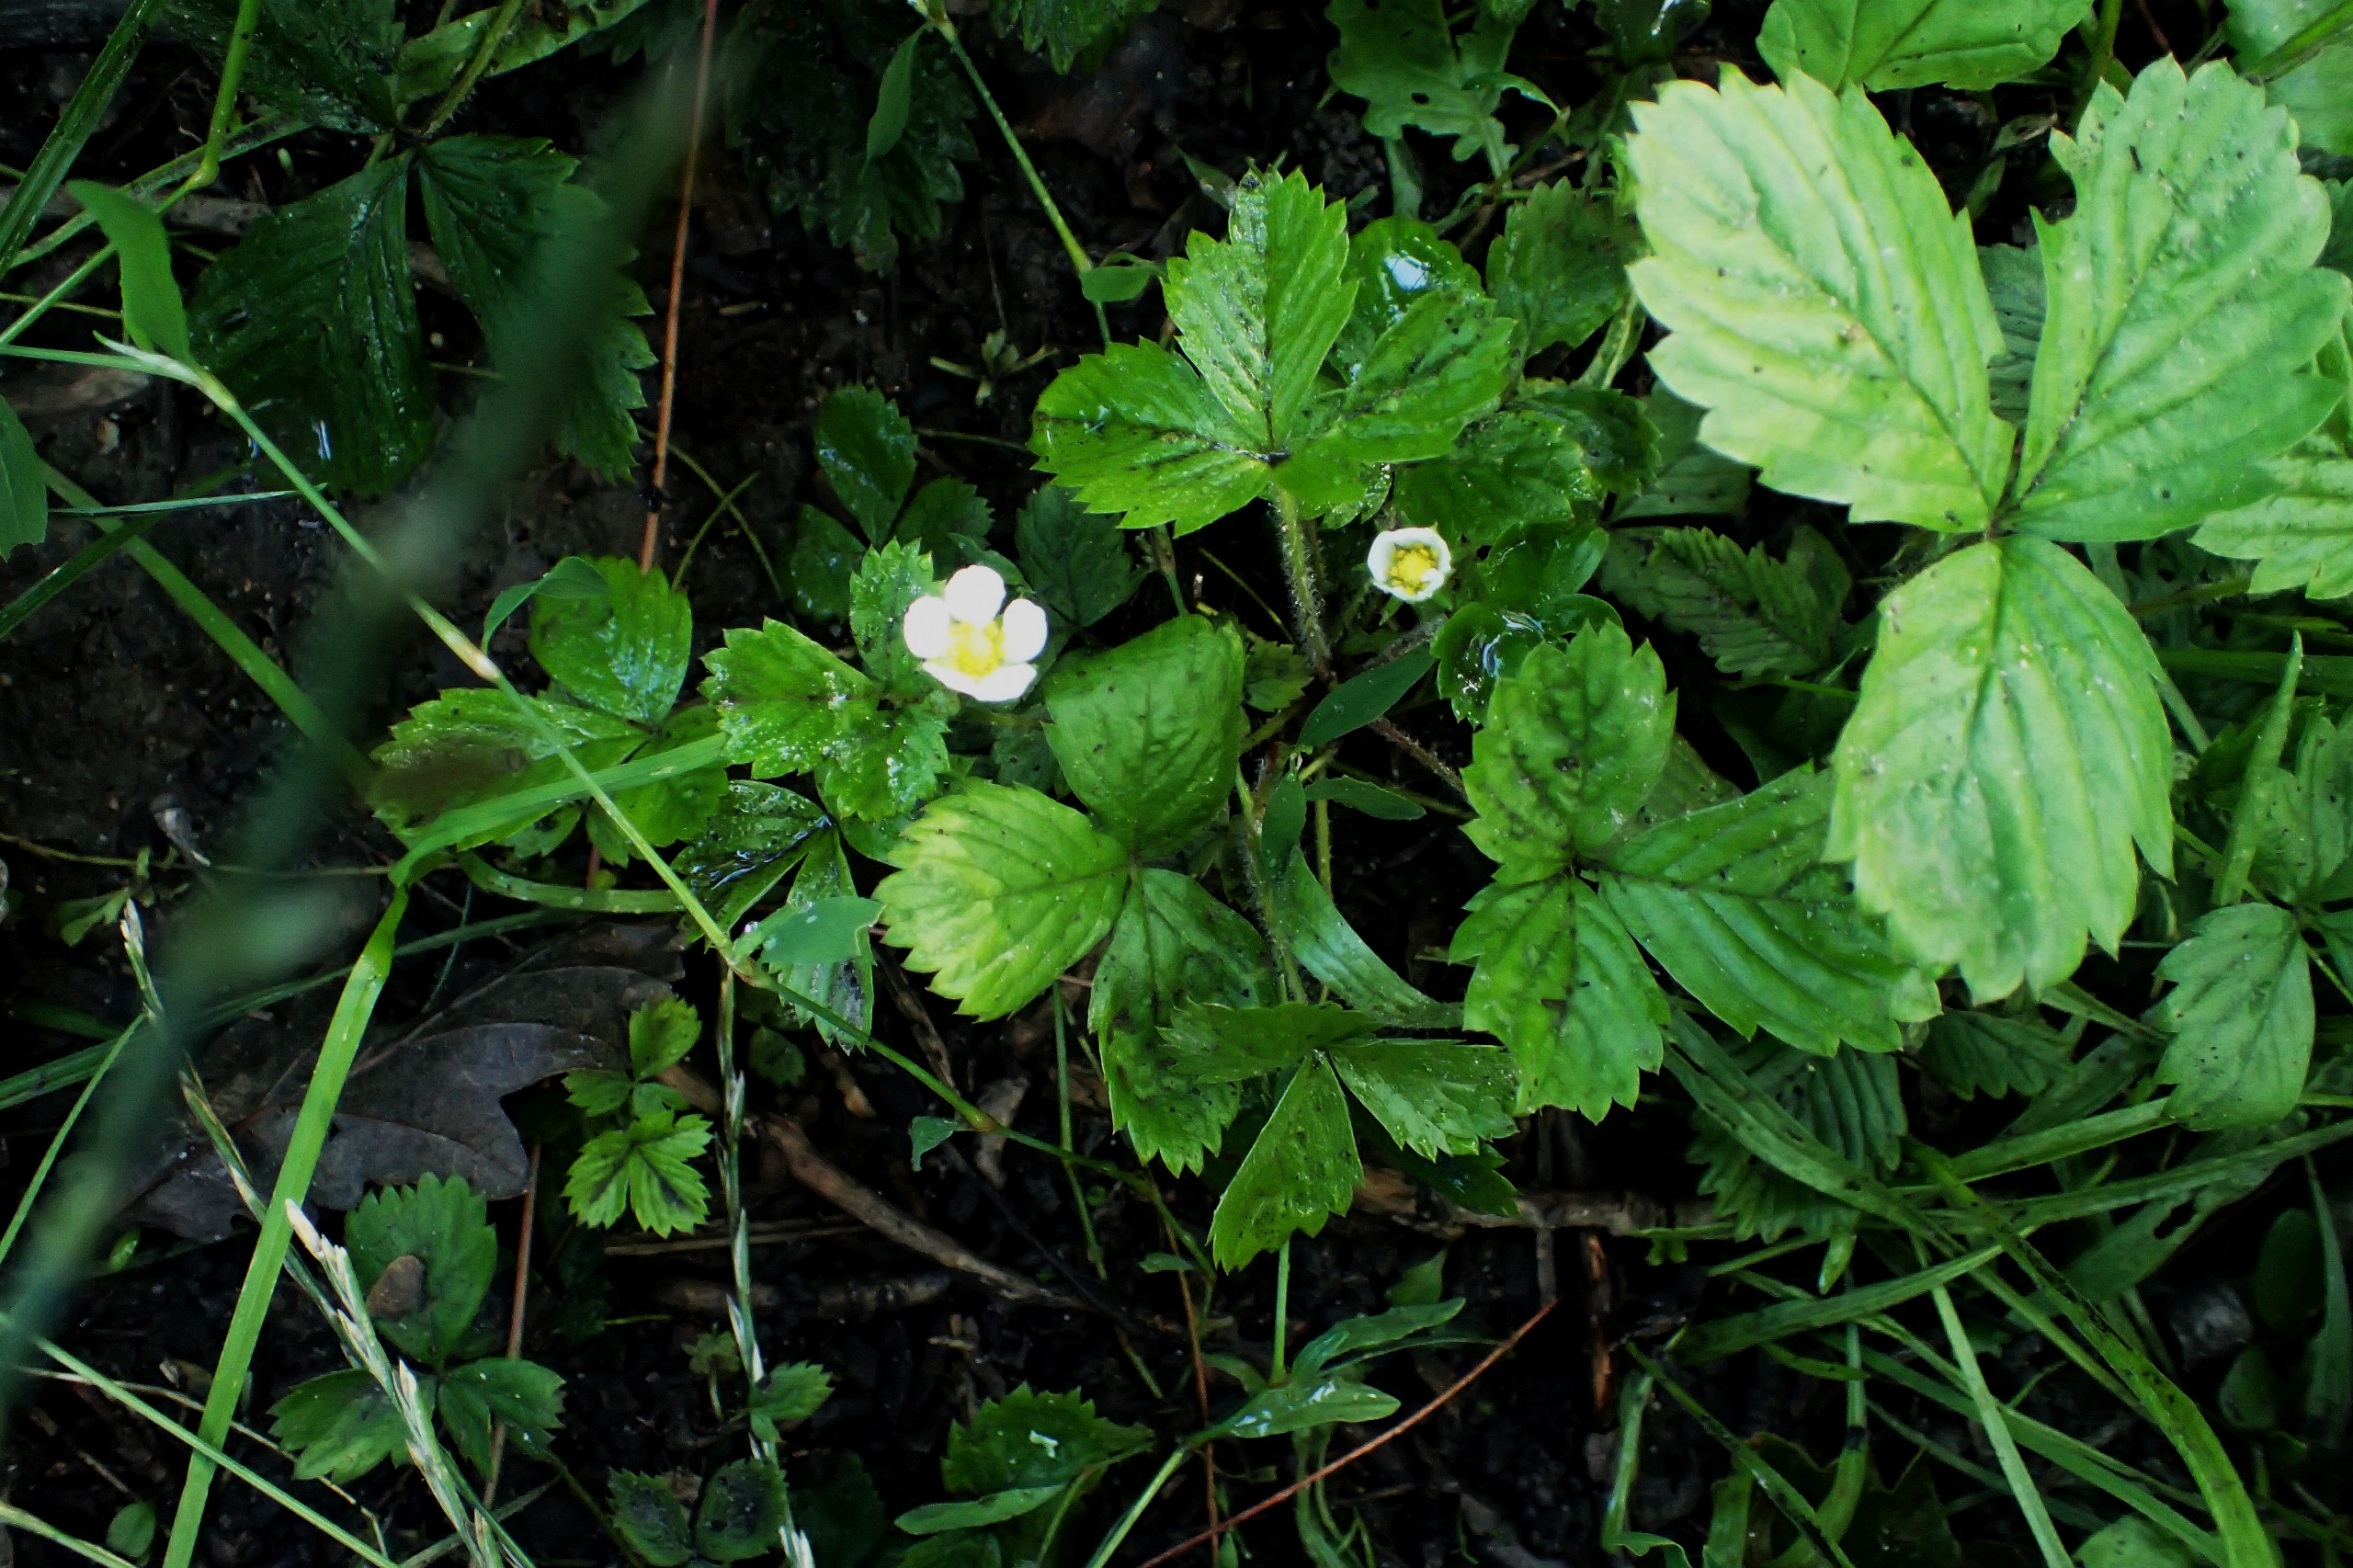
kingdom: Plantae
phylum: Tracheophyta
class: Magnoliopsida
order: Rosales
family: Rosaceae
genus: Fragaria
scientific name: Fragaria vesca
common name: Skov-jordbær
